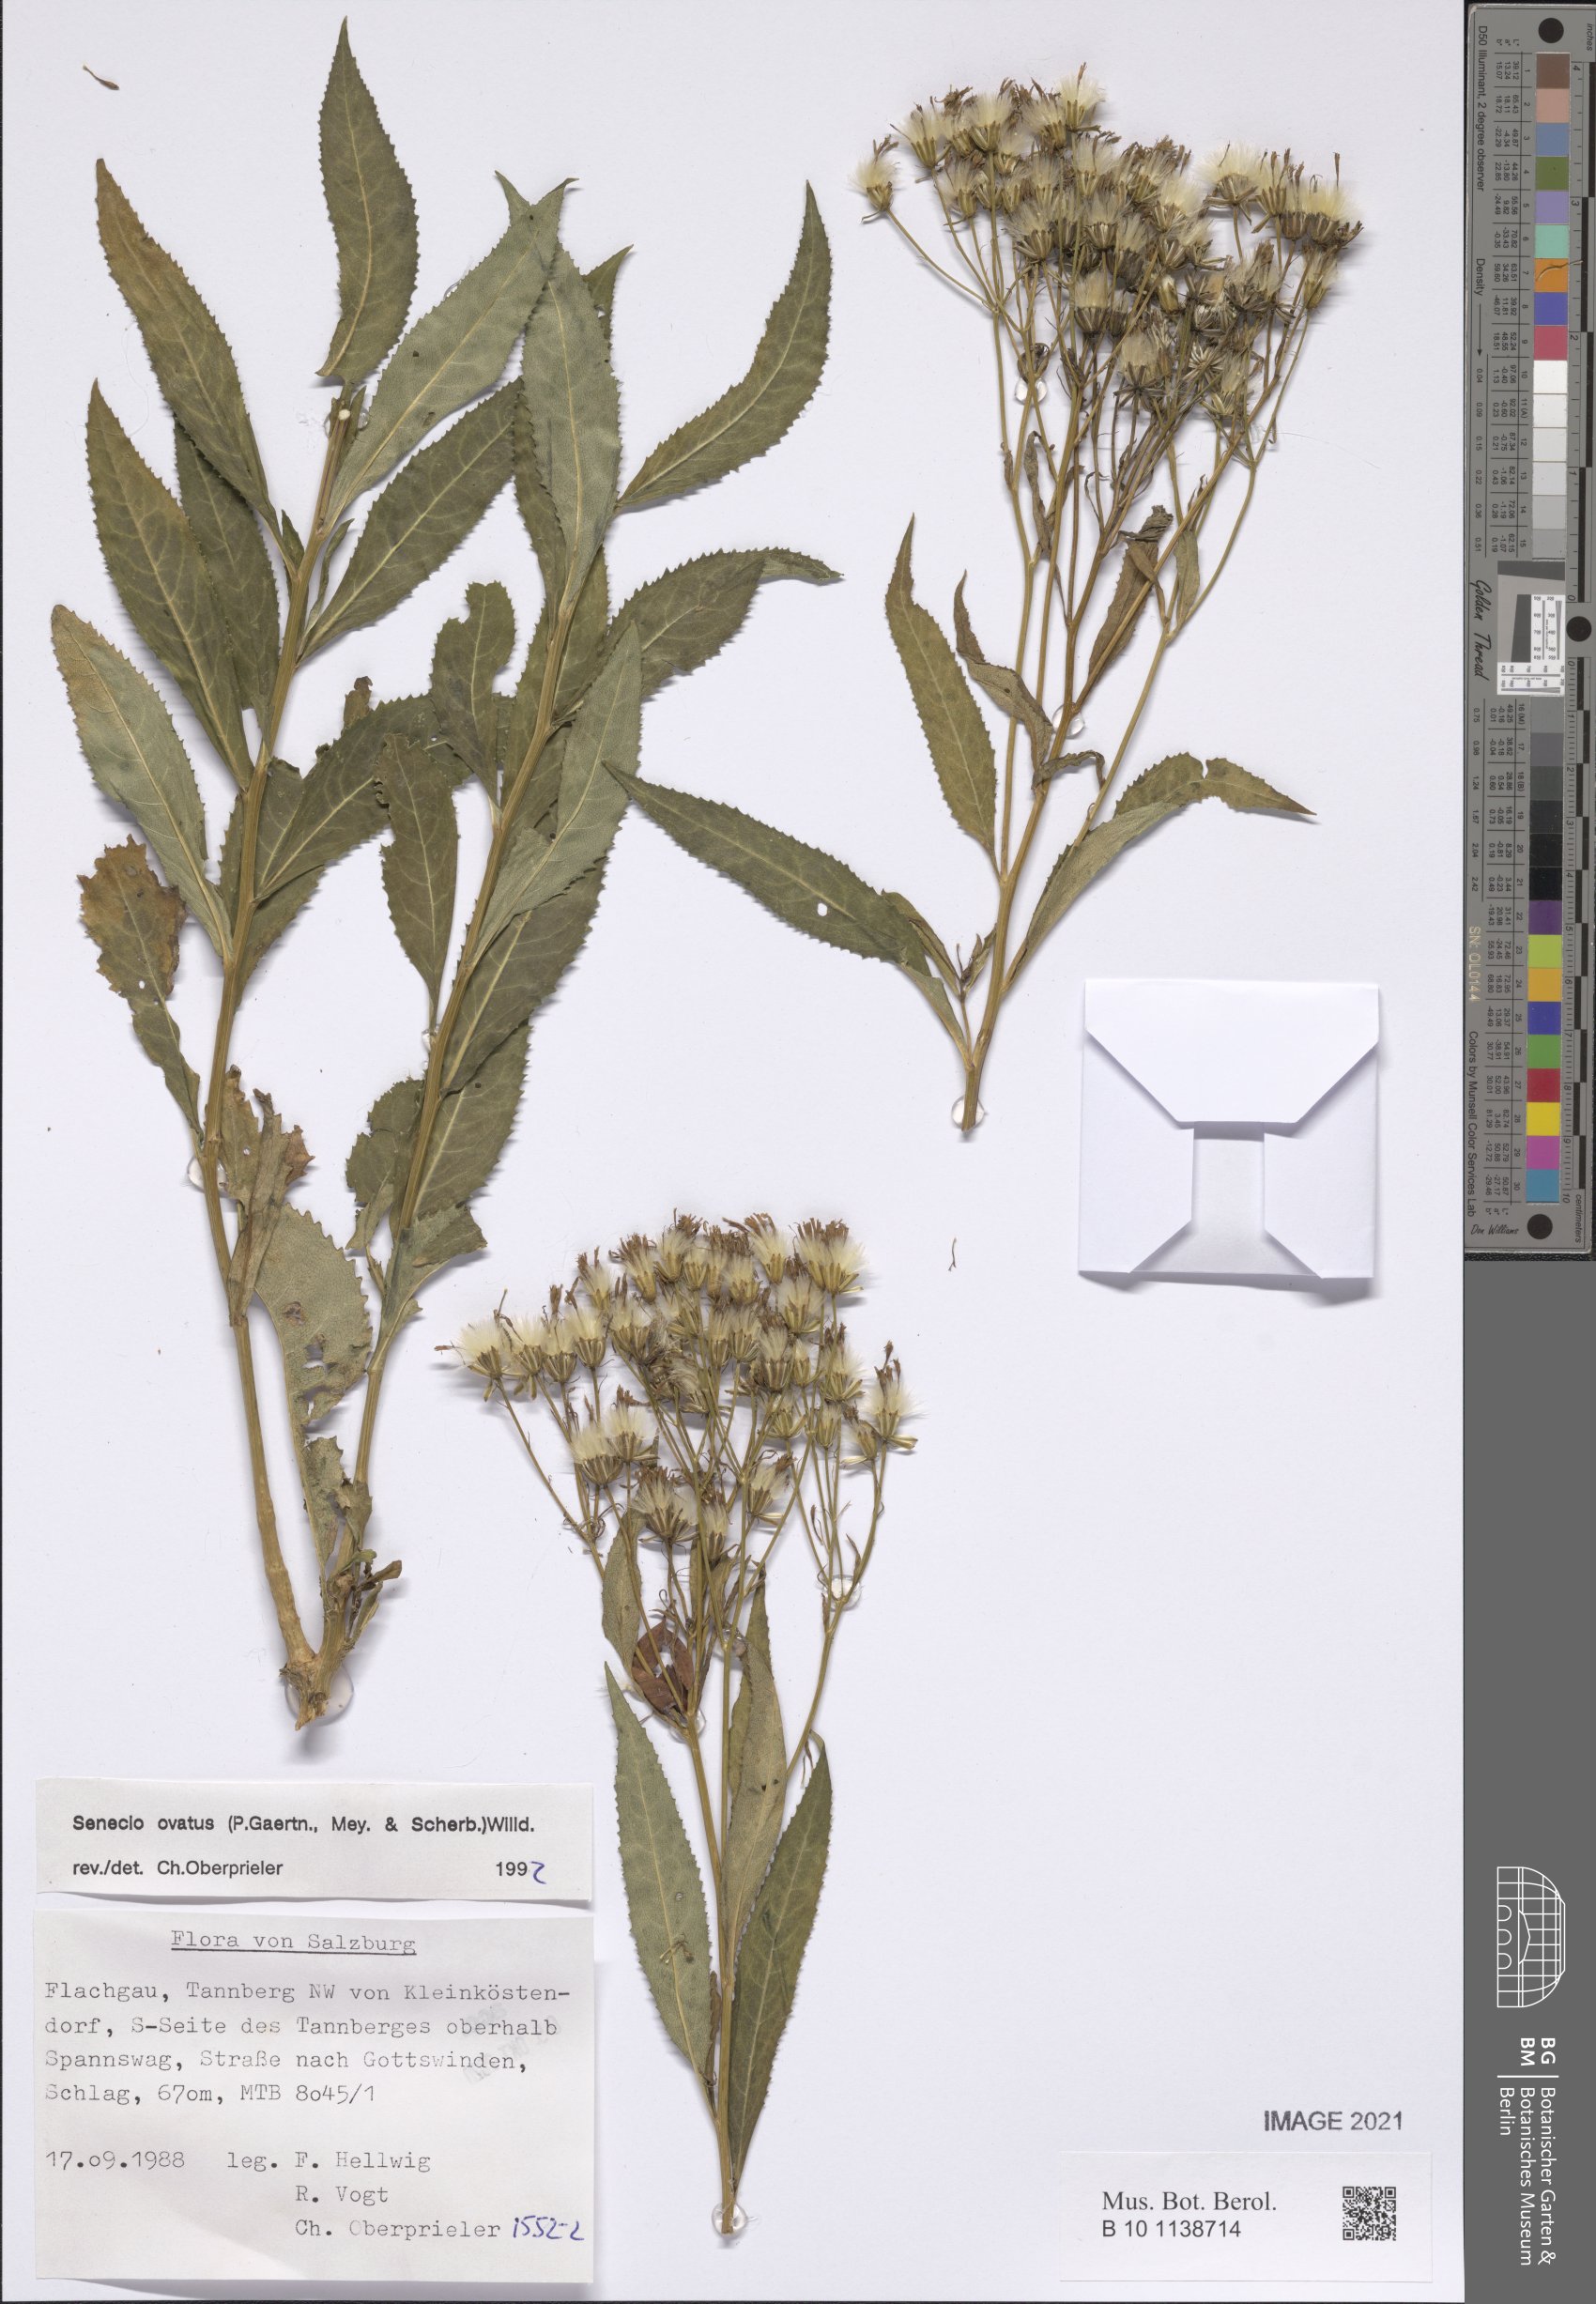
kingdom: Plantae
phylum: Tracheophyta
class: Magnoliopsida
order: Asterales
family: Asteraceae
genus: Senecio
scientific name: Senecio ovatus
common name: Wood ragwort
